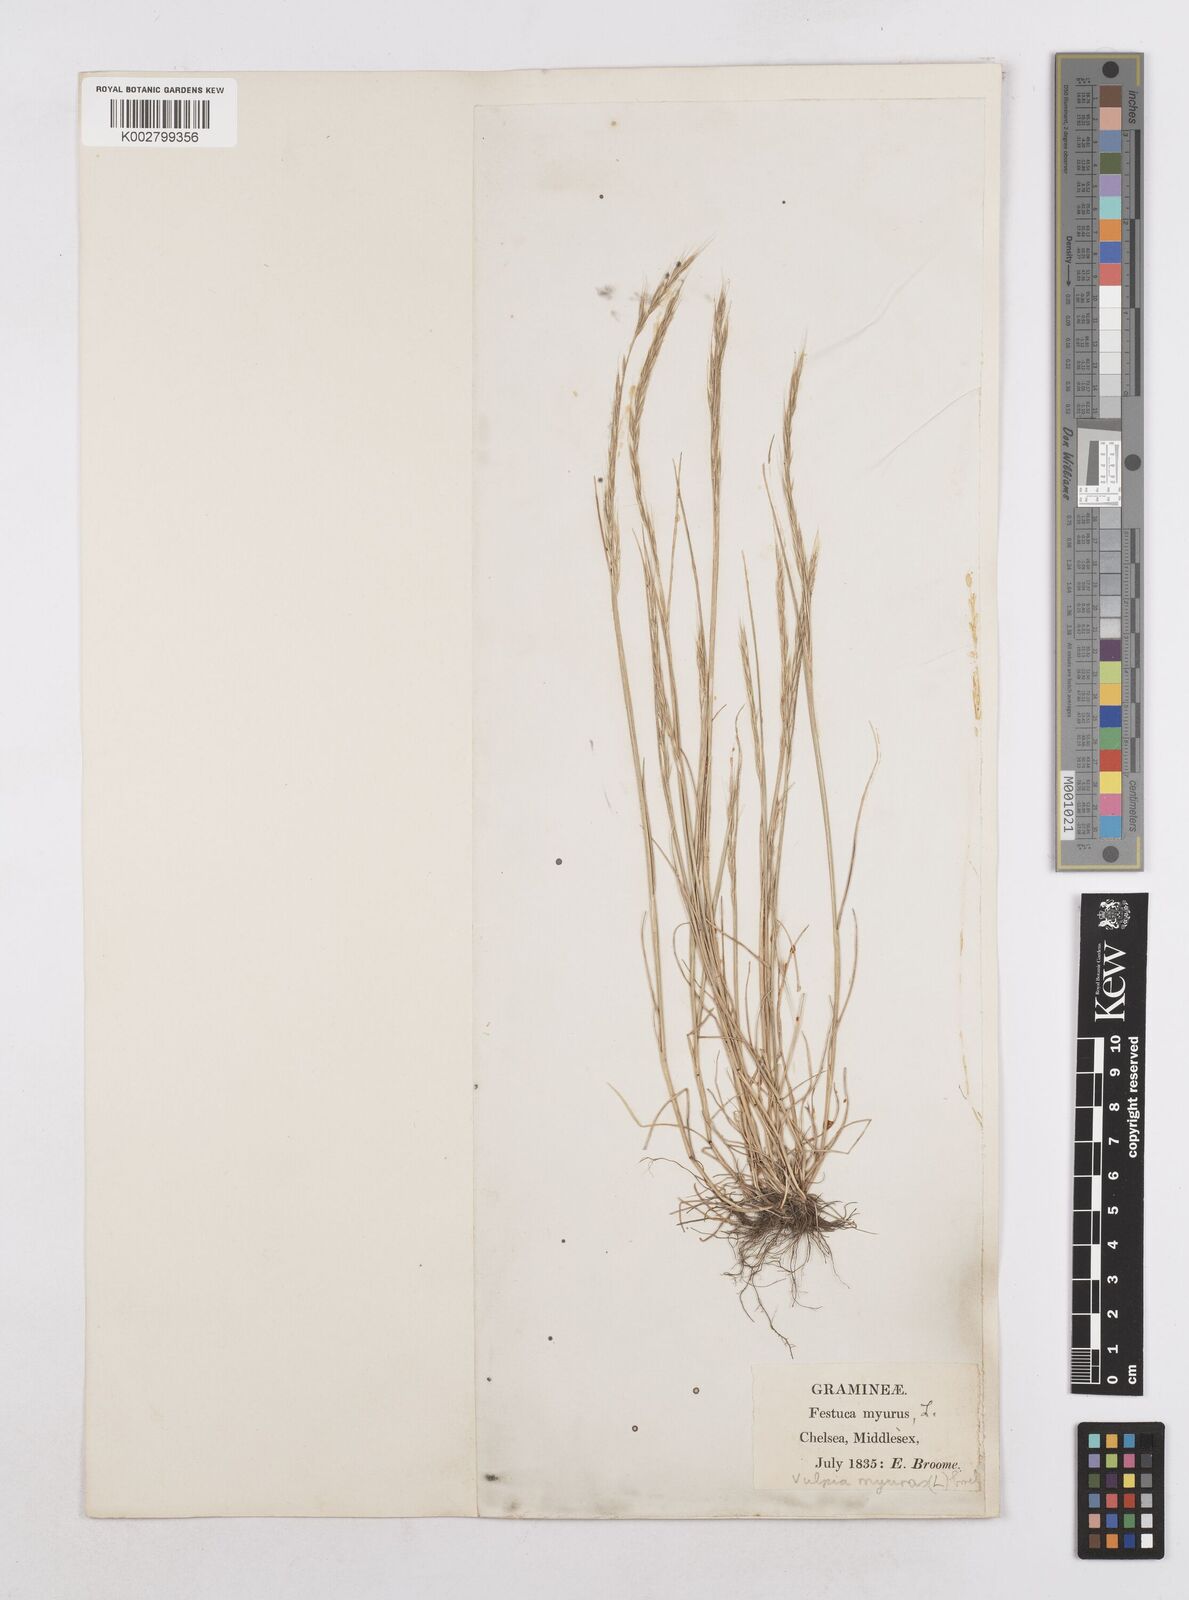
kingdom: Plantae
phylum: Tracheophyta
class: Liliopsida
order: Poales
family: Poaceae
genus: Festuca
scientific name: Festuca myuros
